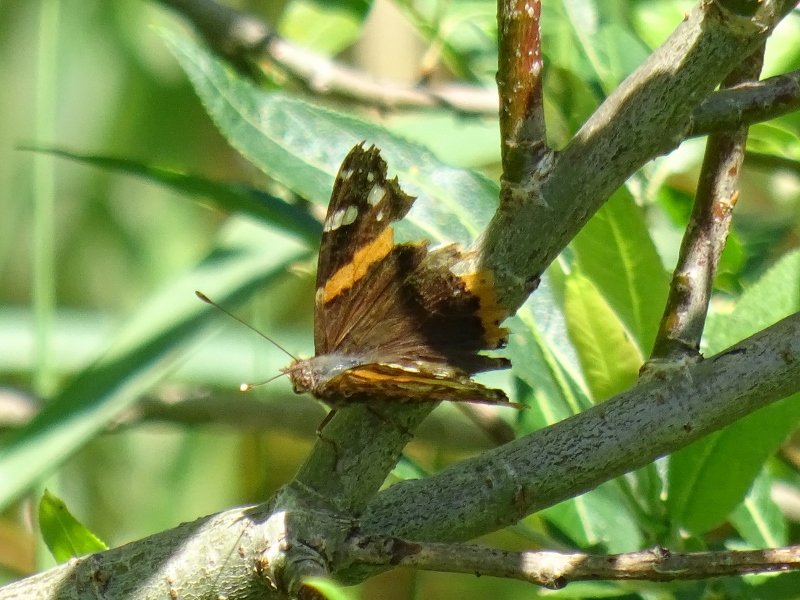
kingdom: Animalia
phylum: Arthropoda
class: Insecta
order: Lepidoptera
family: Nymphalidae
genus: Vanessa
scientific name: Vanessa atalanta
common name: Red Admiral
